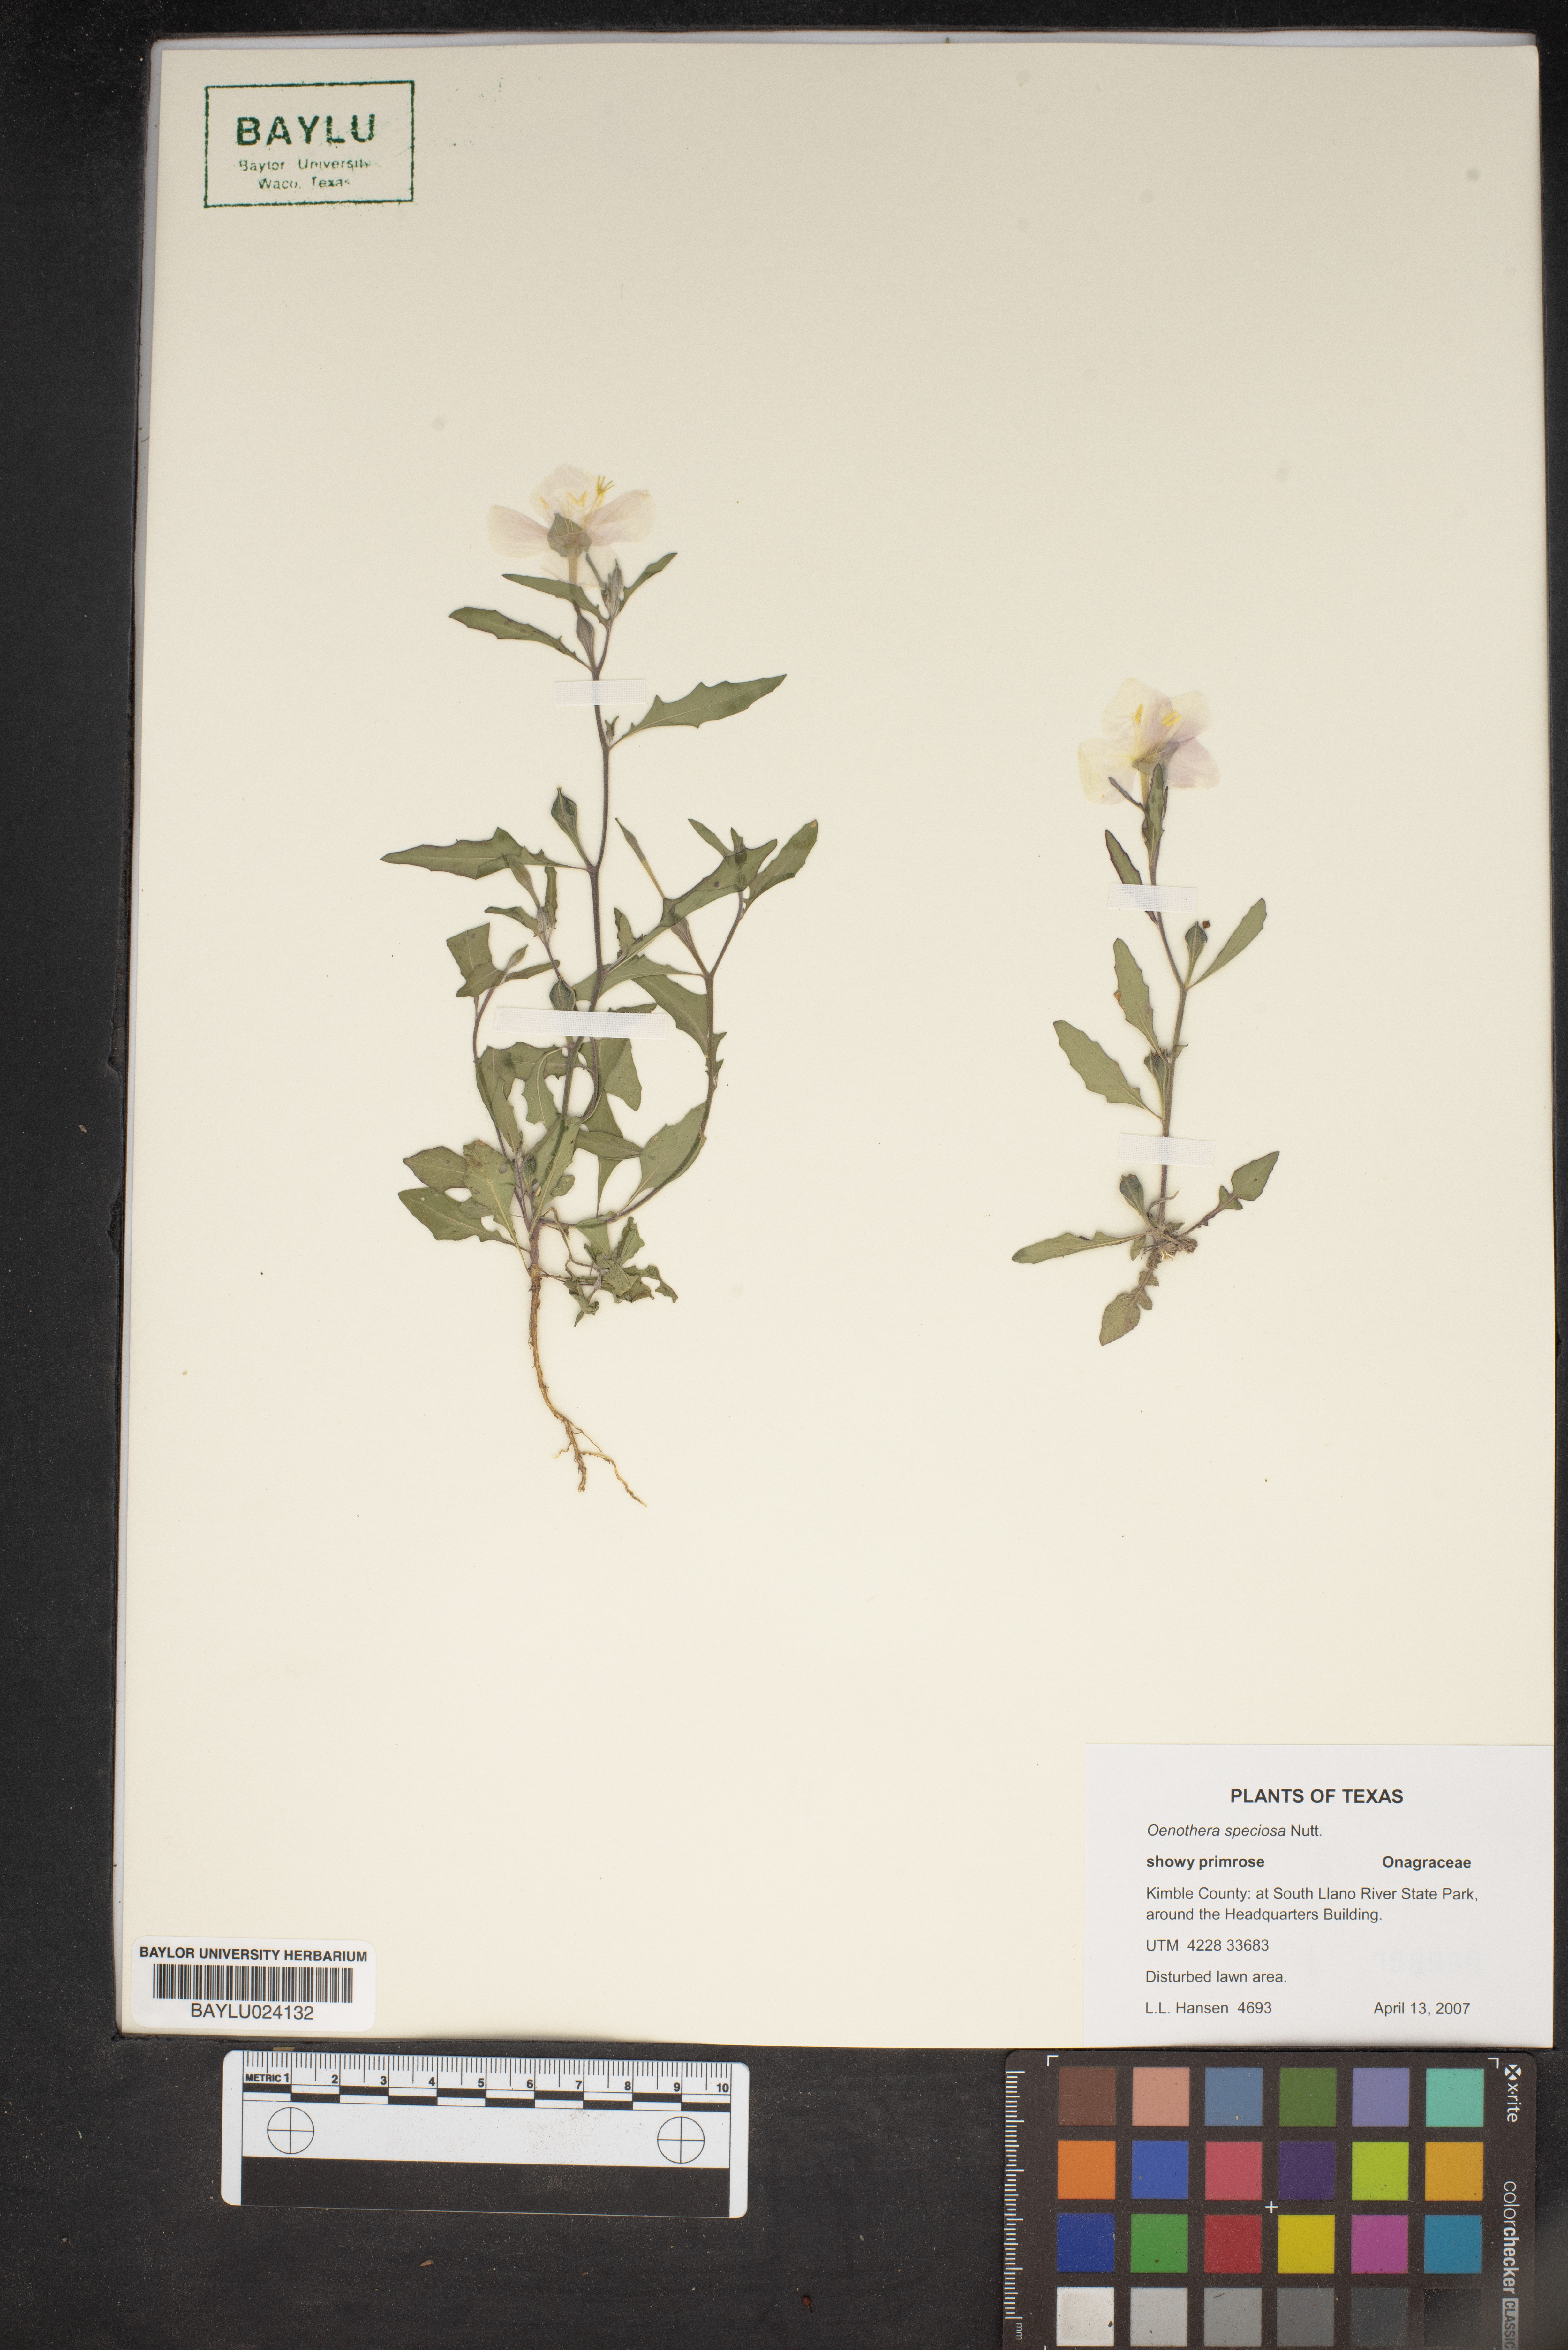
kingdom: Plantae
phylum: Tracheophyta
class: Magnoliopsida
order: Myrtales
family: Onagraceae
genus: Oenothera
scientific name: Oenothera speciosa
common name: White evening-primrose
